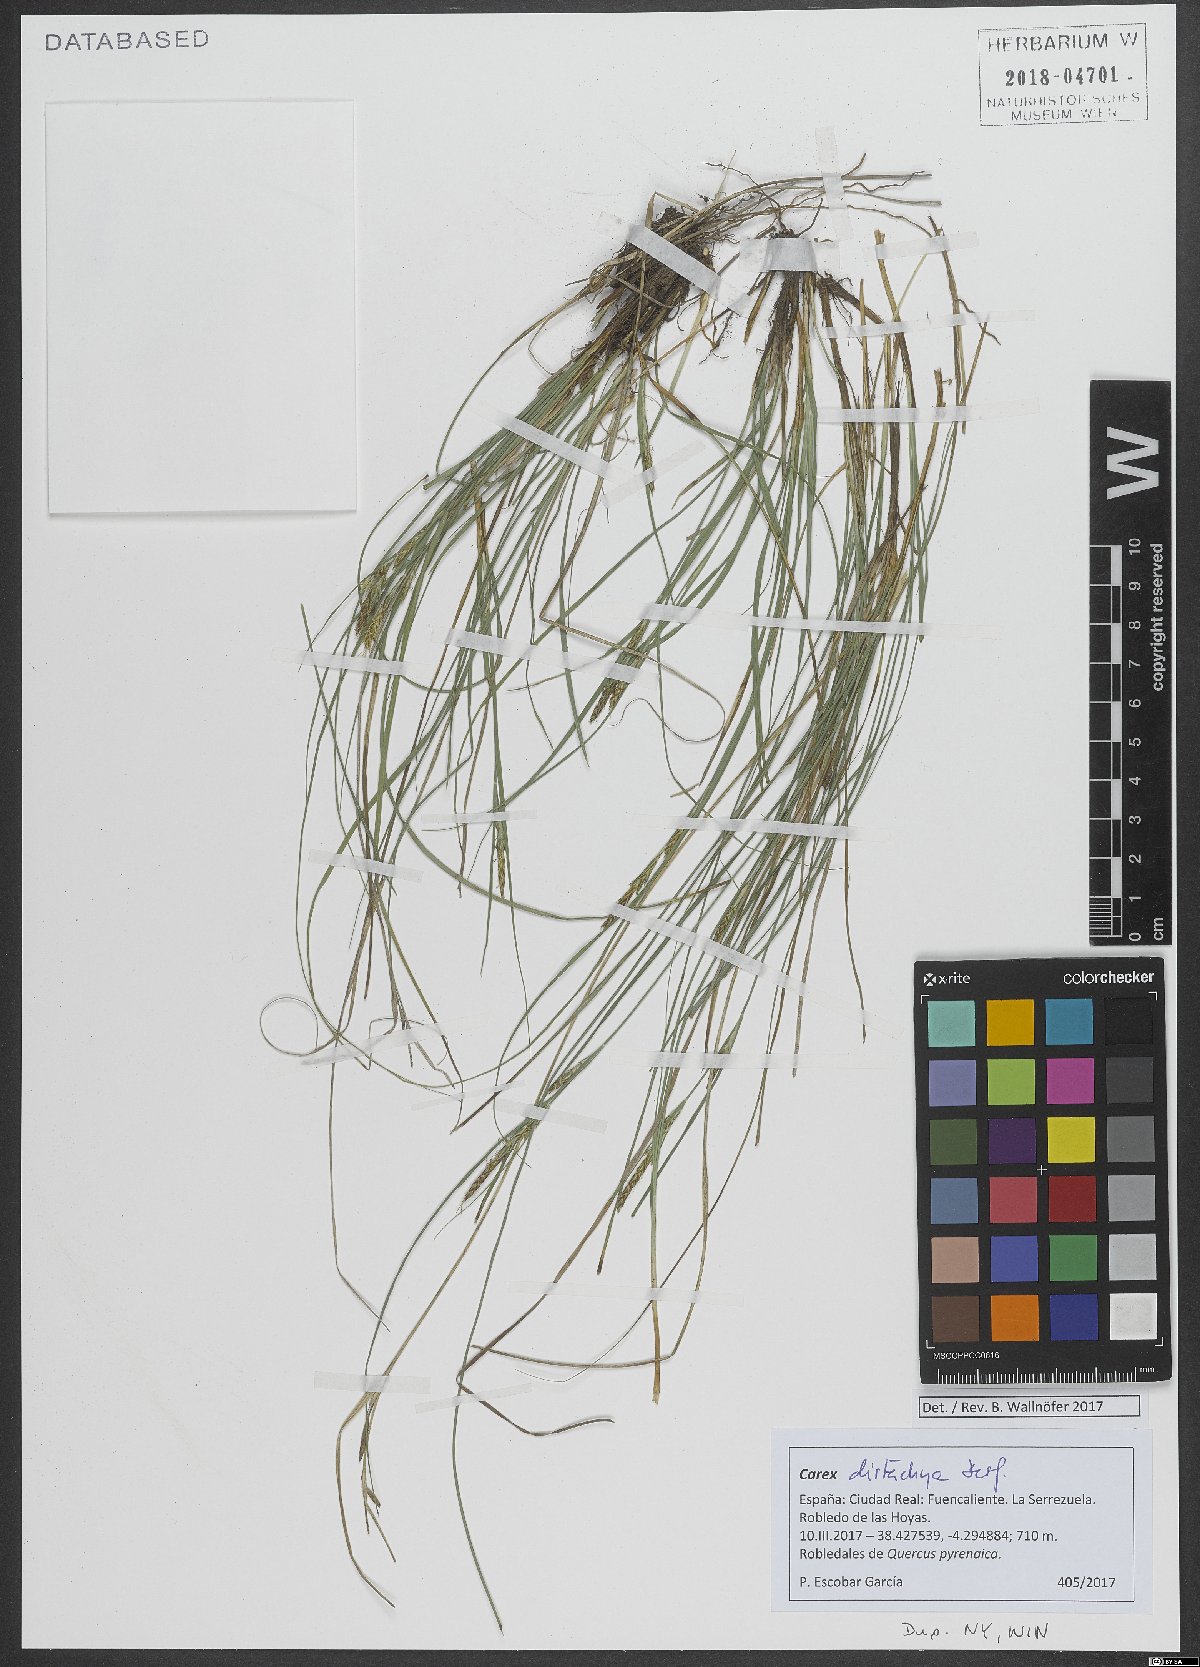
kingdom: Plantae
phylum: Tracheophyta
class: Liliopsida
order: Poales
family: Cyperaceae
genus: Carex
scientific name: Carex distachya
